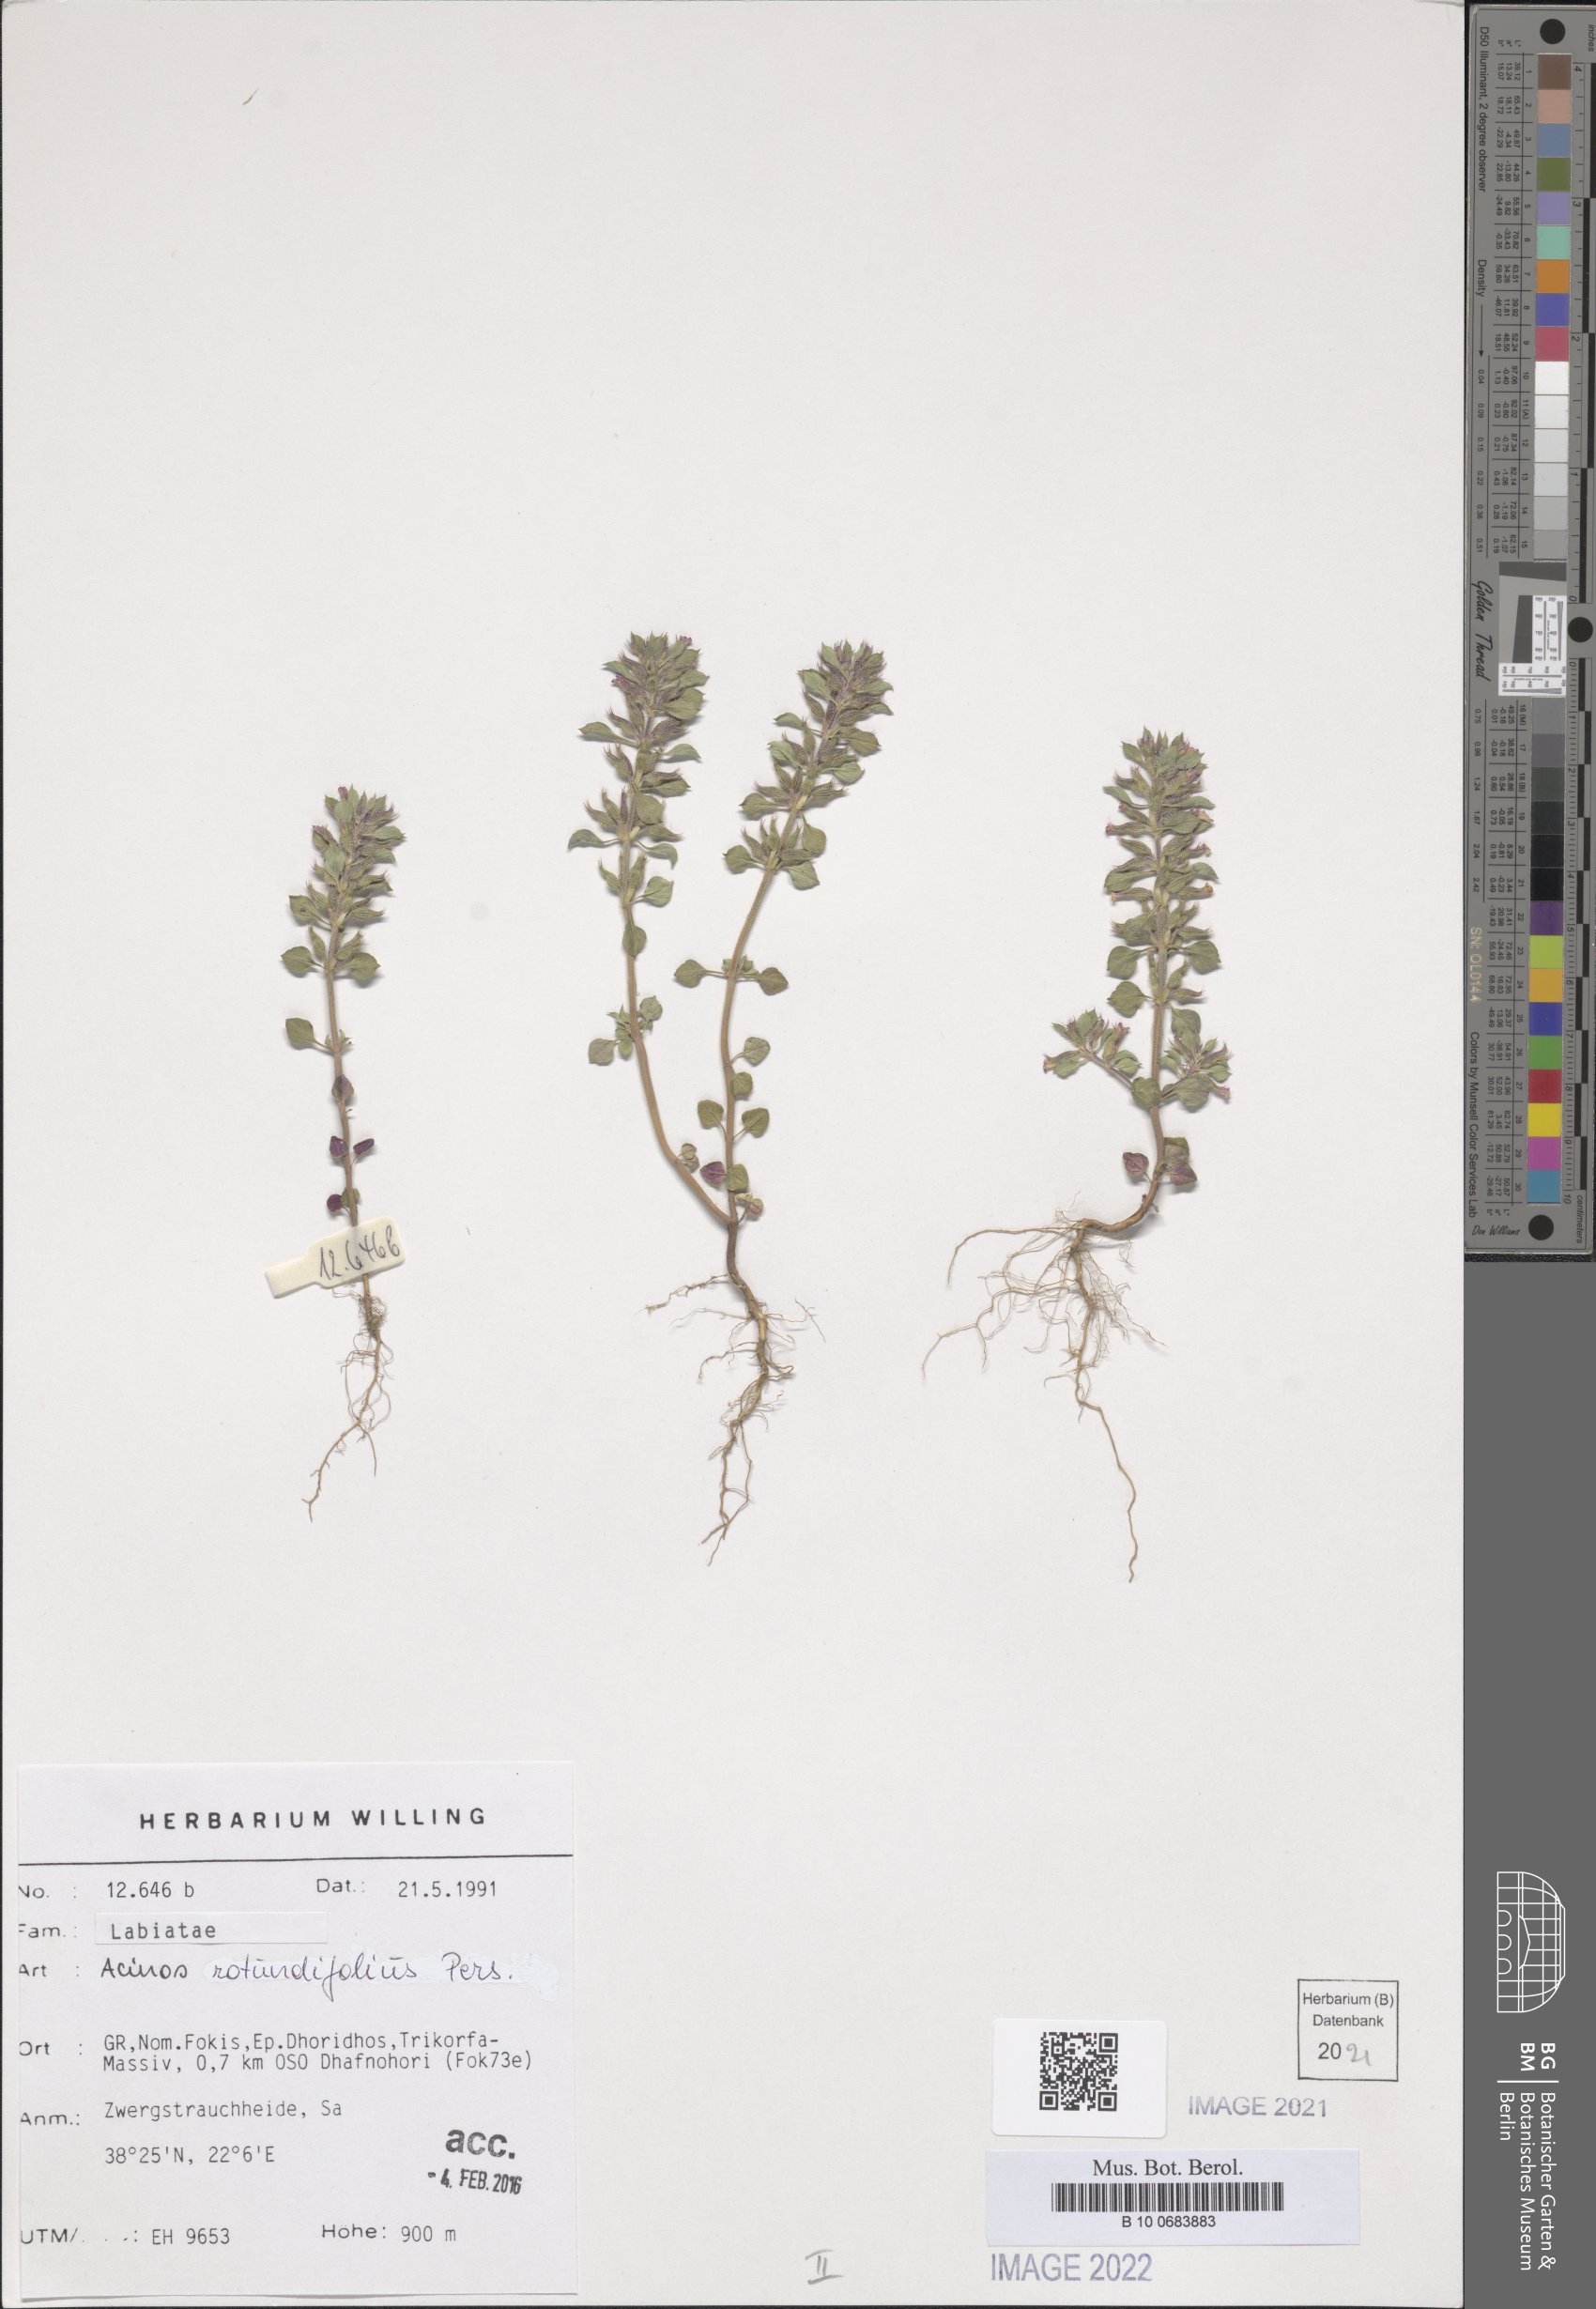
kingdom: Plantae
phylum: Tracheophyta
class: Magnoliopsida
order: Lamiales
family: Lamiaceae
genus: Clinopodium
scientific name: Clinopodium graveolens
